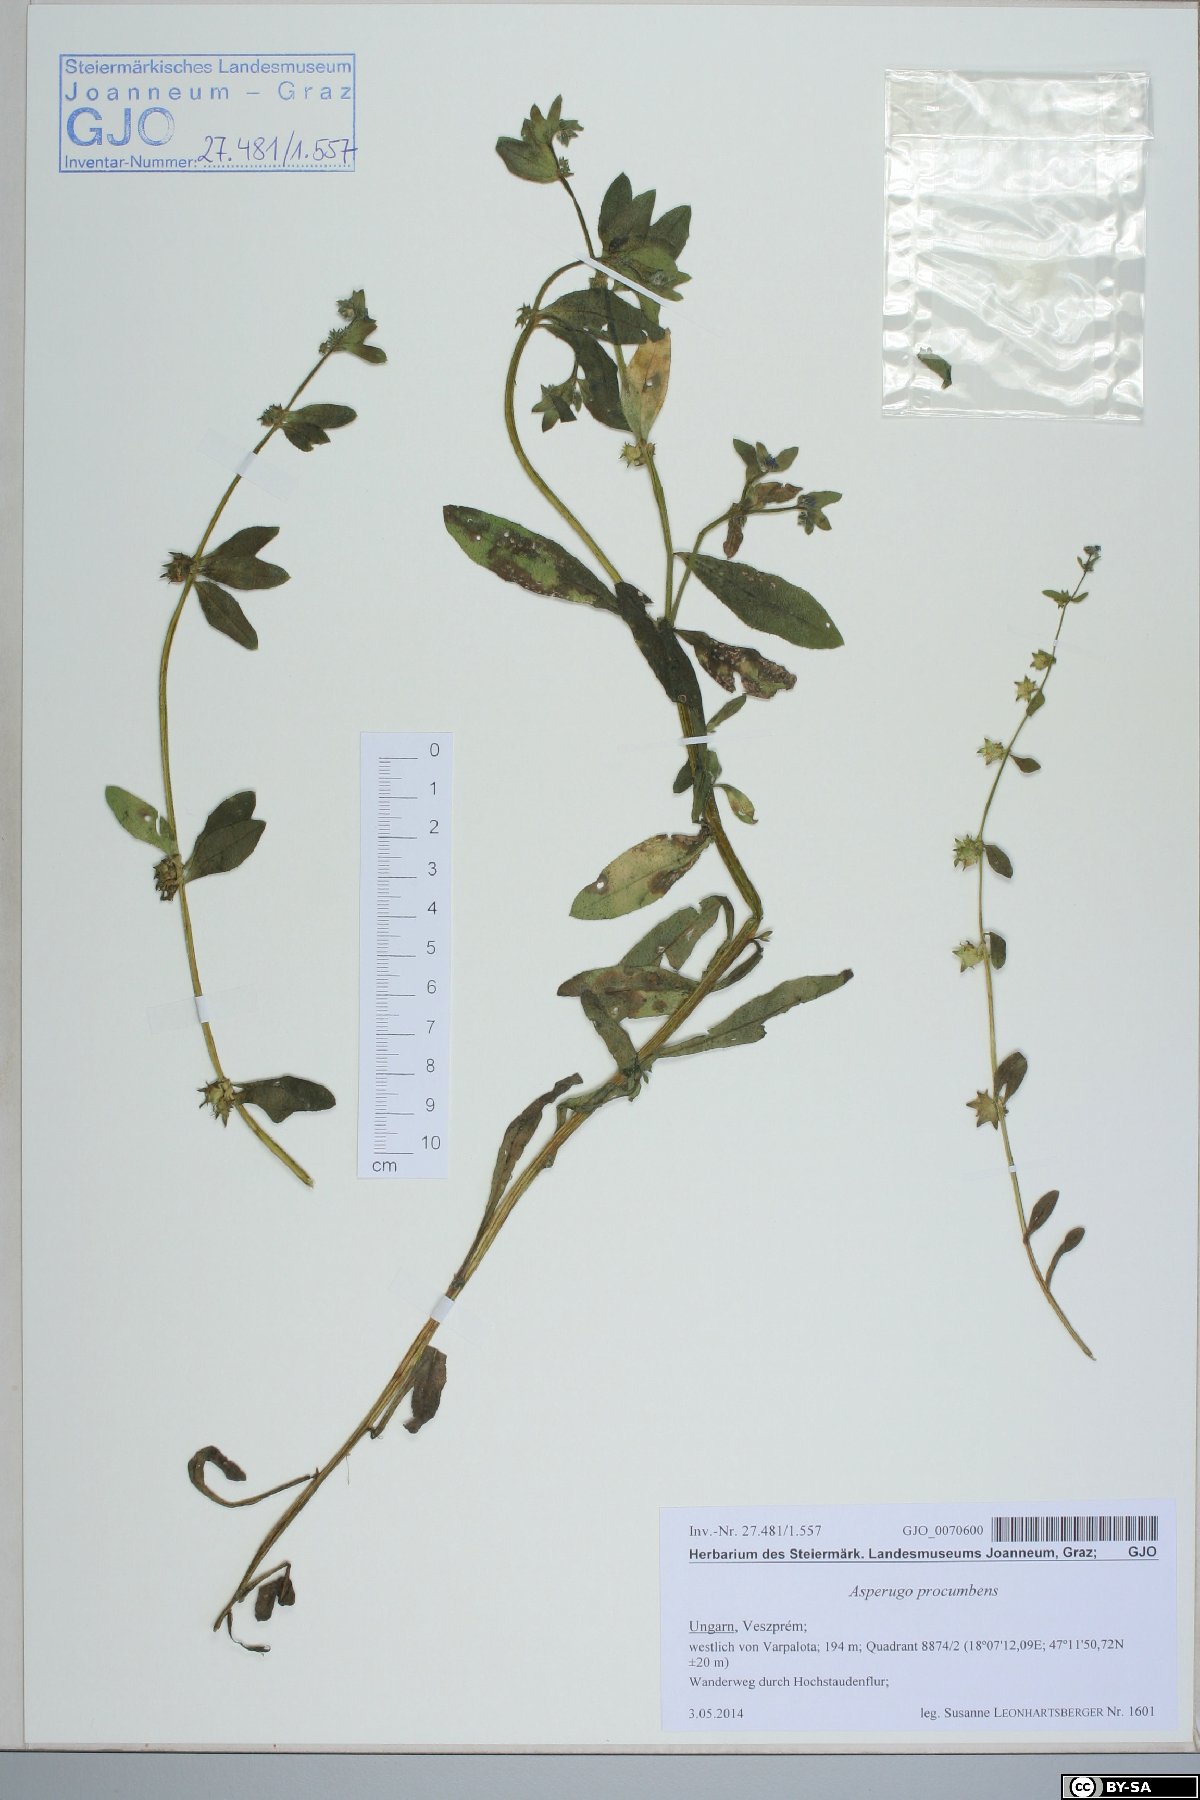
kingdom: Plantae
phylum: Tracheophyta
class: Magnoliopsida
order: Boraginales
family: Boraginaceae
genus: Asperugo
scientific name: Asperugo procumbens
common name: Madwort
